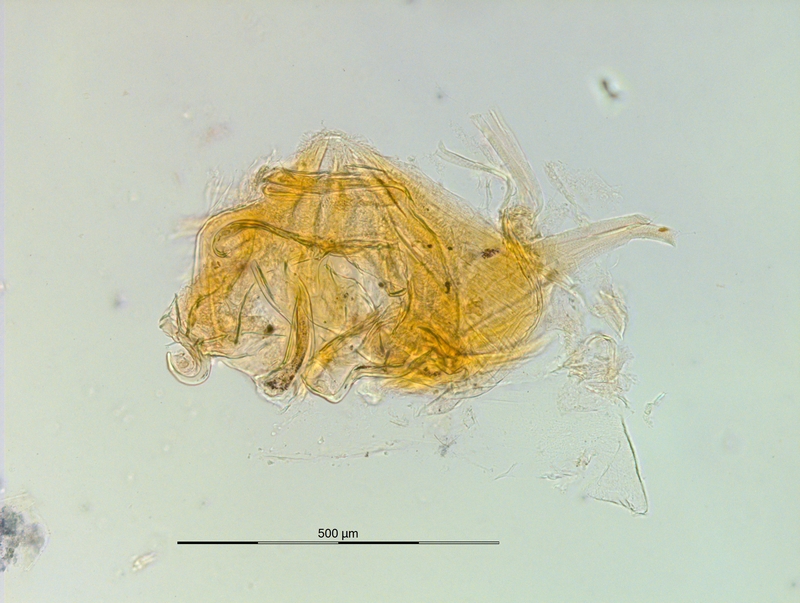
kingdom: Animalia
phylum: Arthropoda
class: Diplopoda
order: Chordeumatida
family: Craspedosomatidae
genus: Ochogona
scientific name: Ochogona caroli
